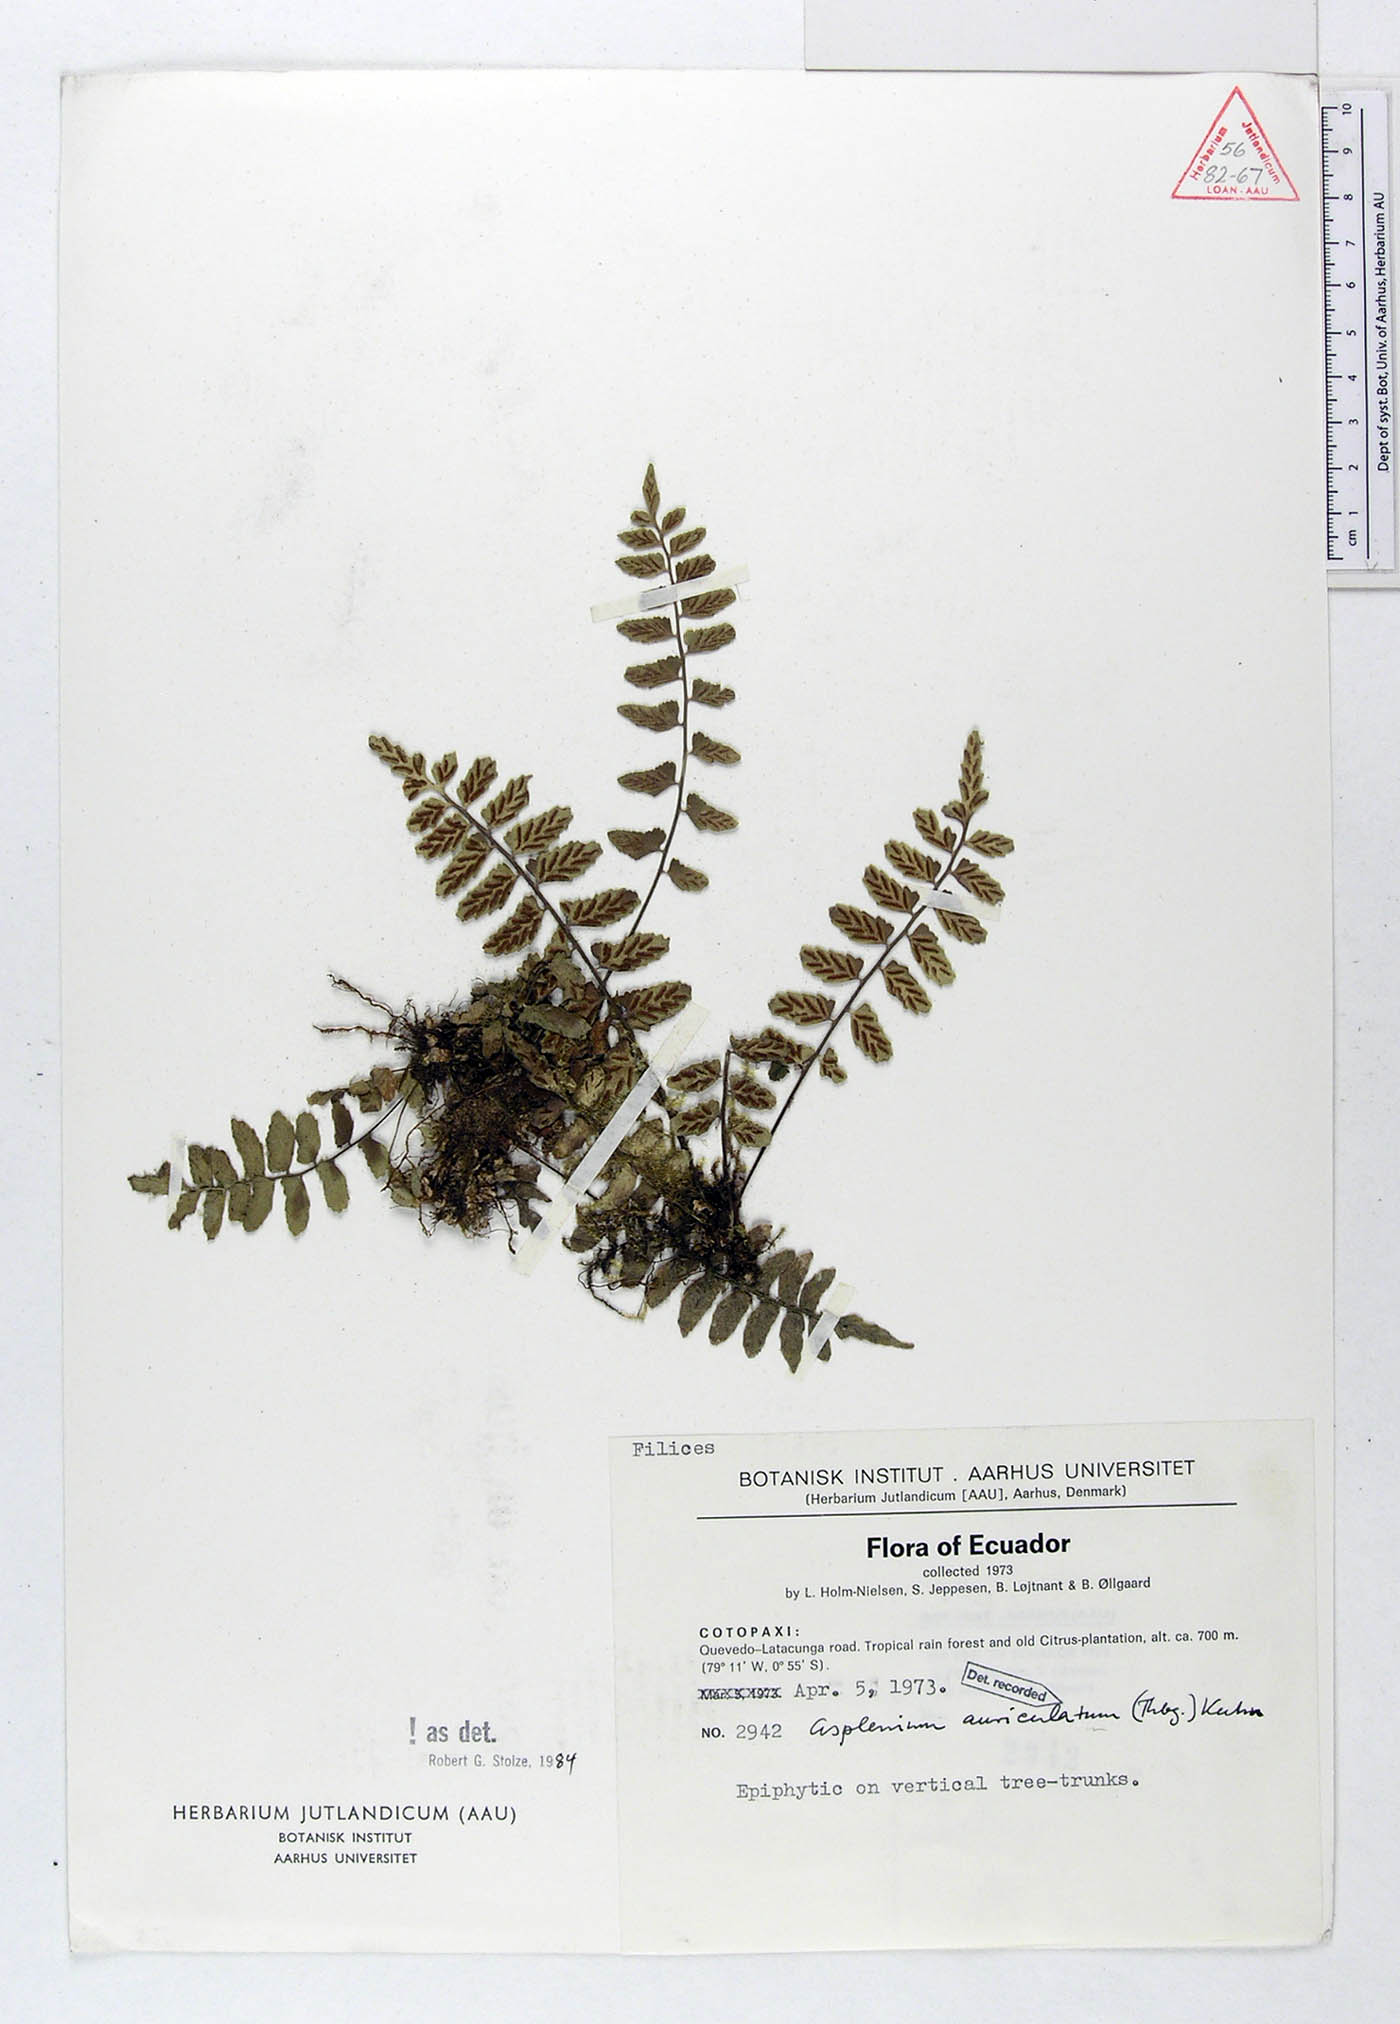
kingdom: Plantae
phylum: Tracheophyta
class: Polypodiopsida
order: Polypodiales
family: Aspleniaceae
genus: Asplenium
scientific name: Asplenium auriculatum
